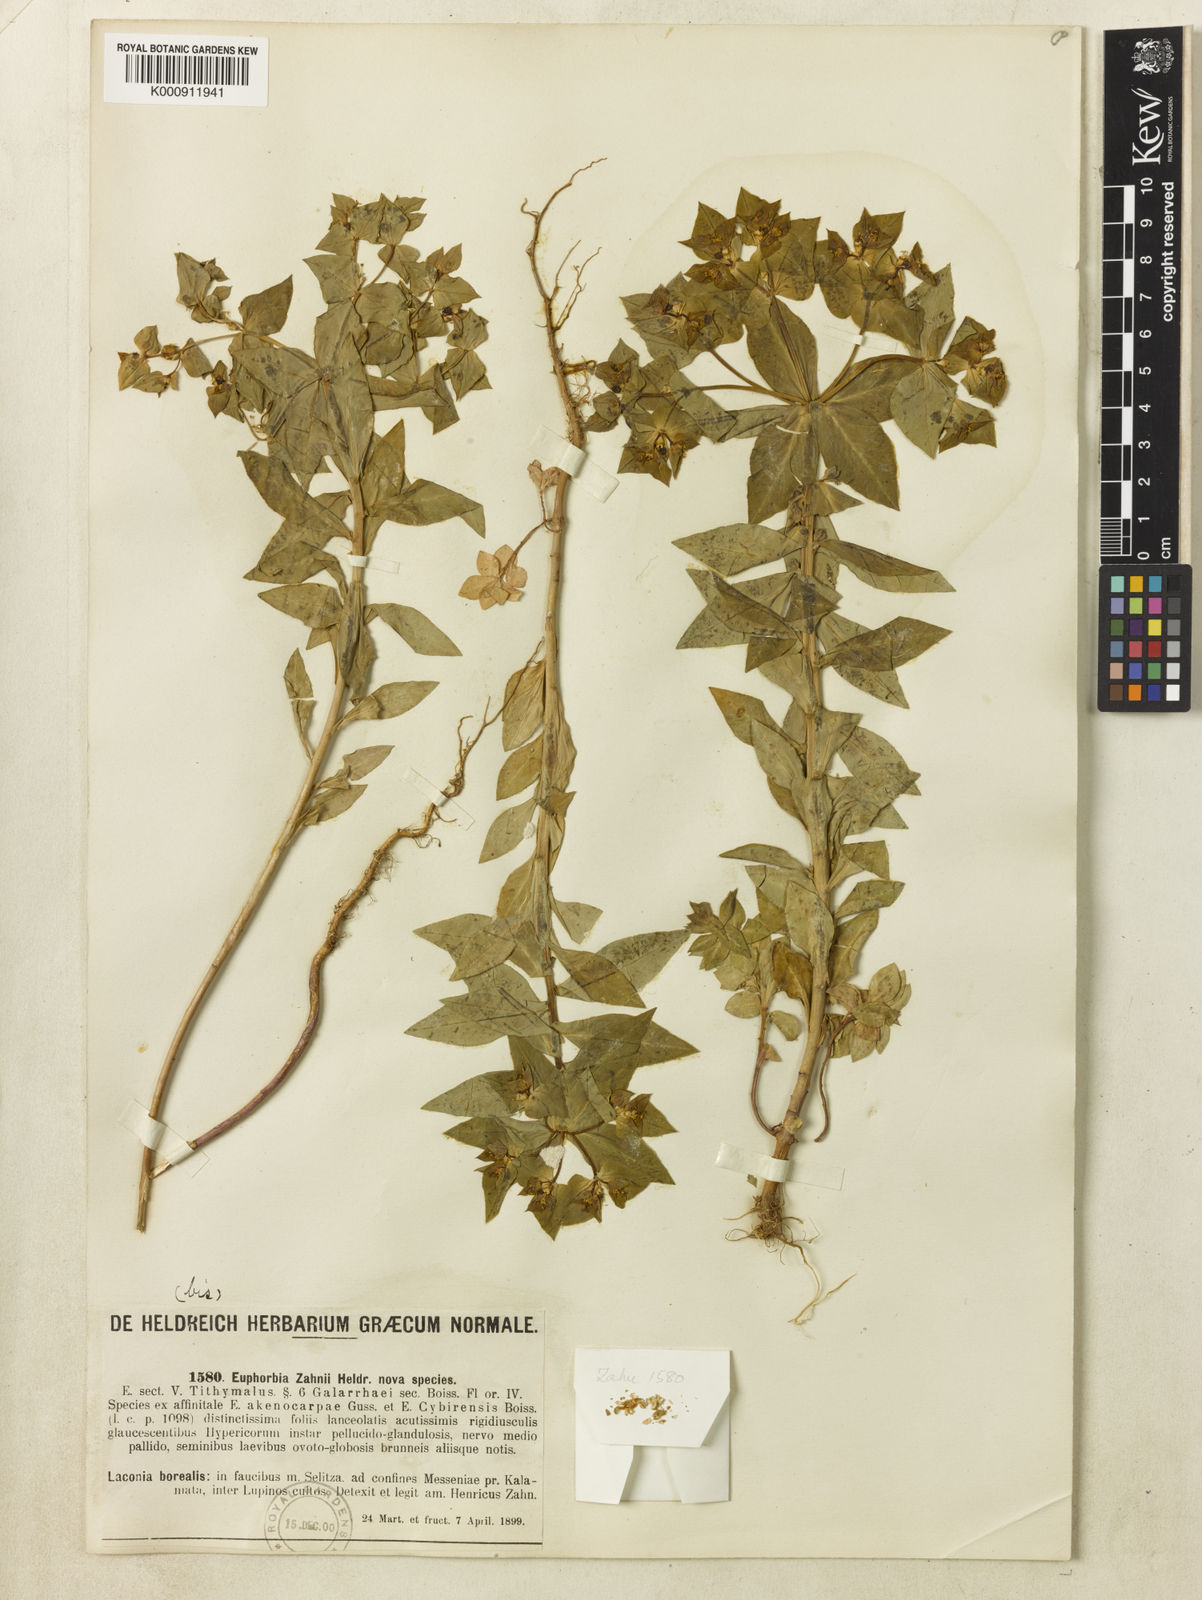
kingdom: Plantae
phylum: Tracheophyta
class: Magnoliopsida
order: Malpighiales
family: Euphorbiaceae
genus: Euphorbia
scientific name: Euphorbia
